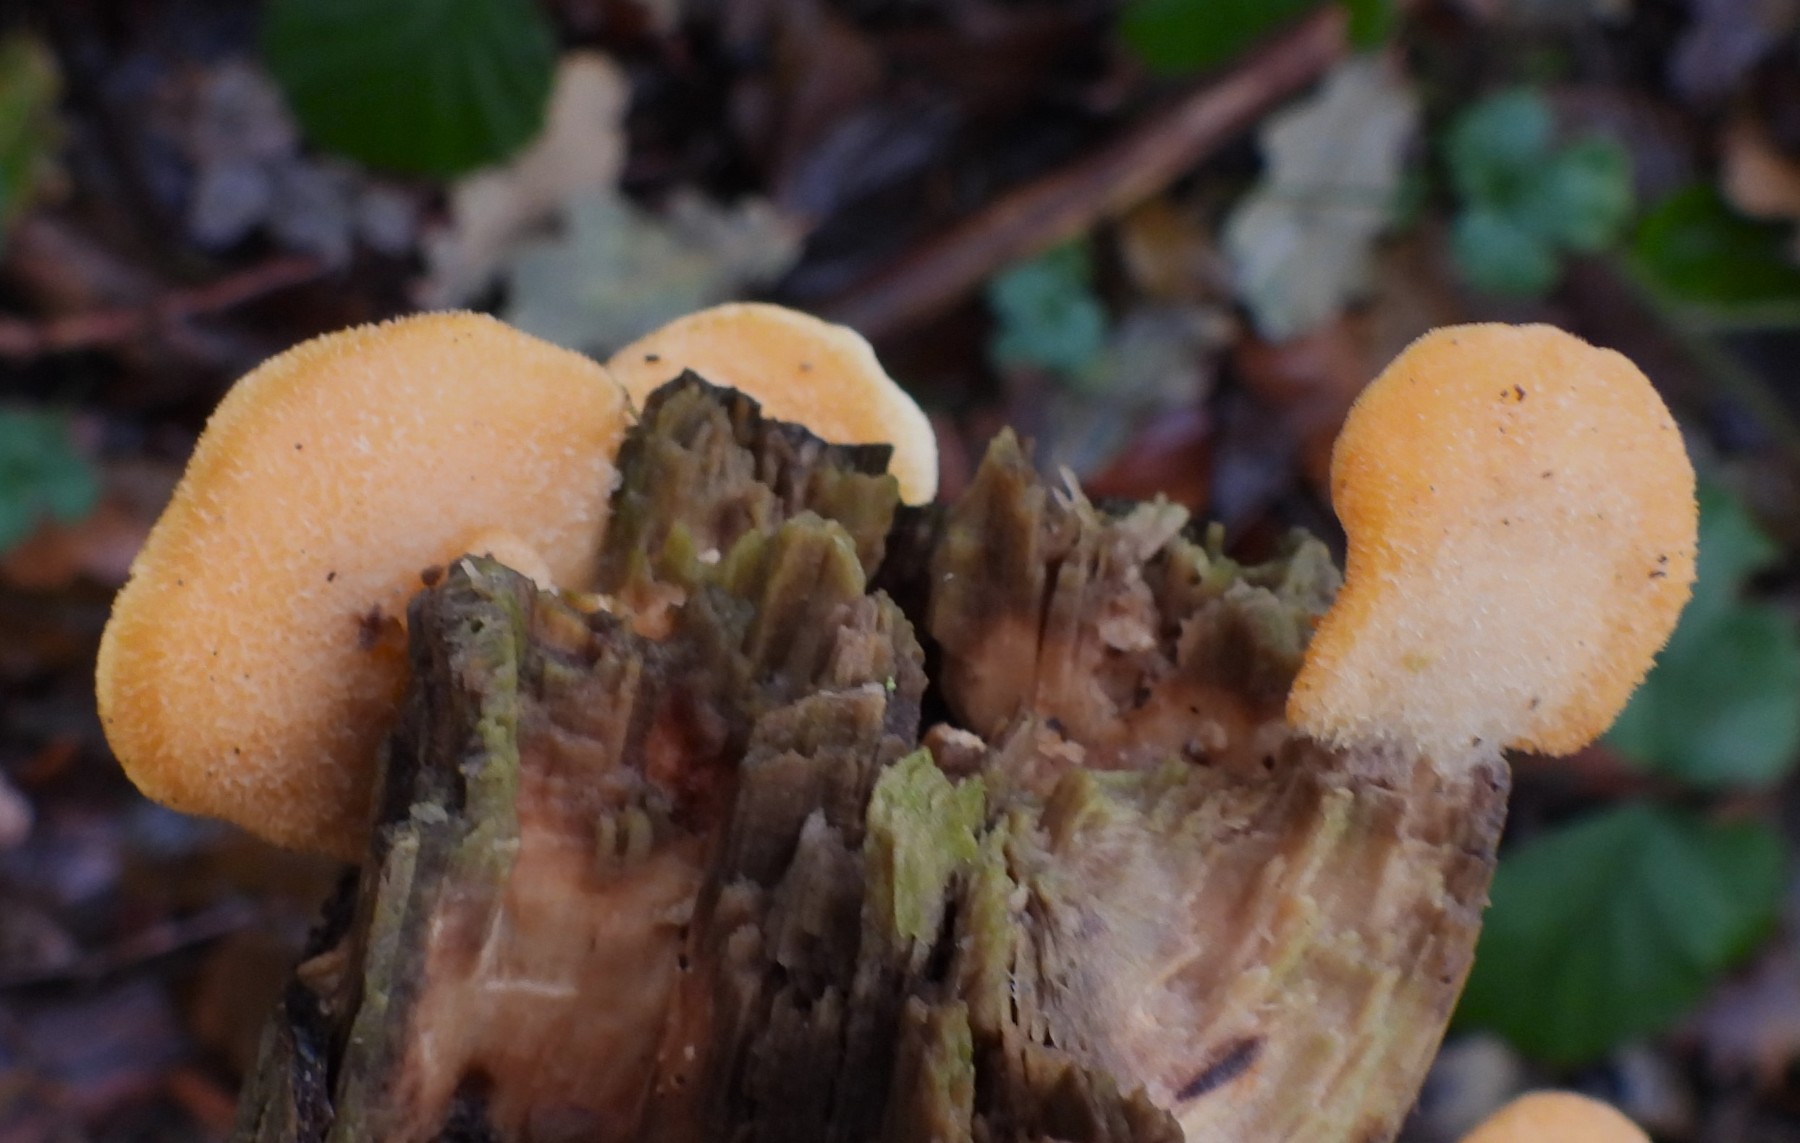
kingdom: Fungi
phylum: Basidiomycota
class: Agaricomycetes
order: Agaricales
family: Phyllotopsidaceae
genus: Phyllotopsis
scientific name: Phyllotopsis nidulans
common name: okkerblad
